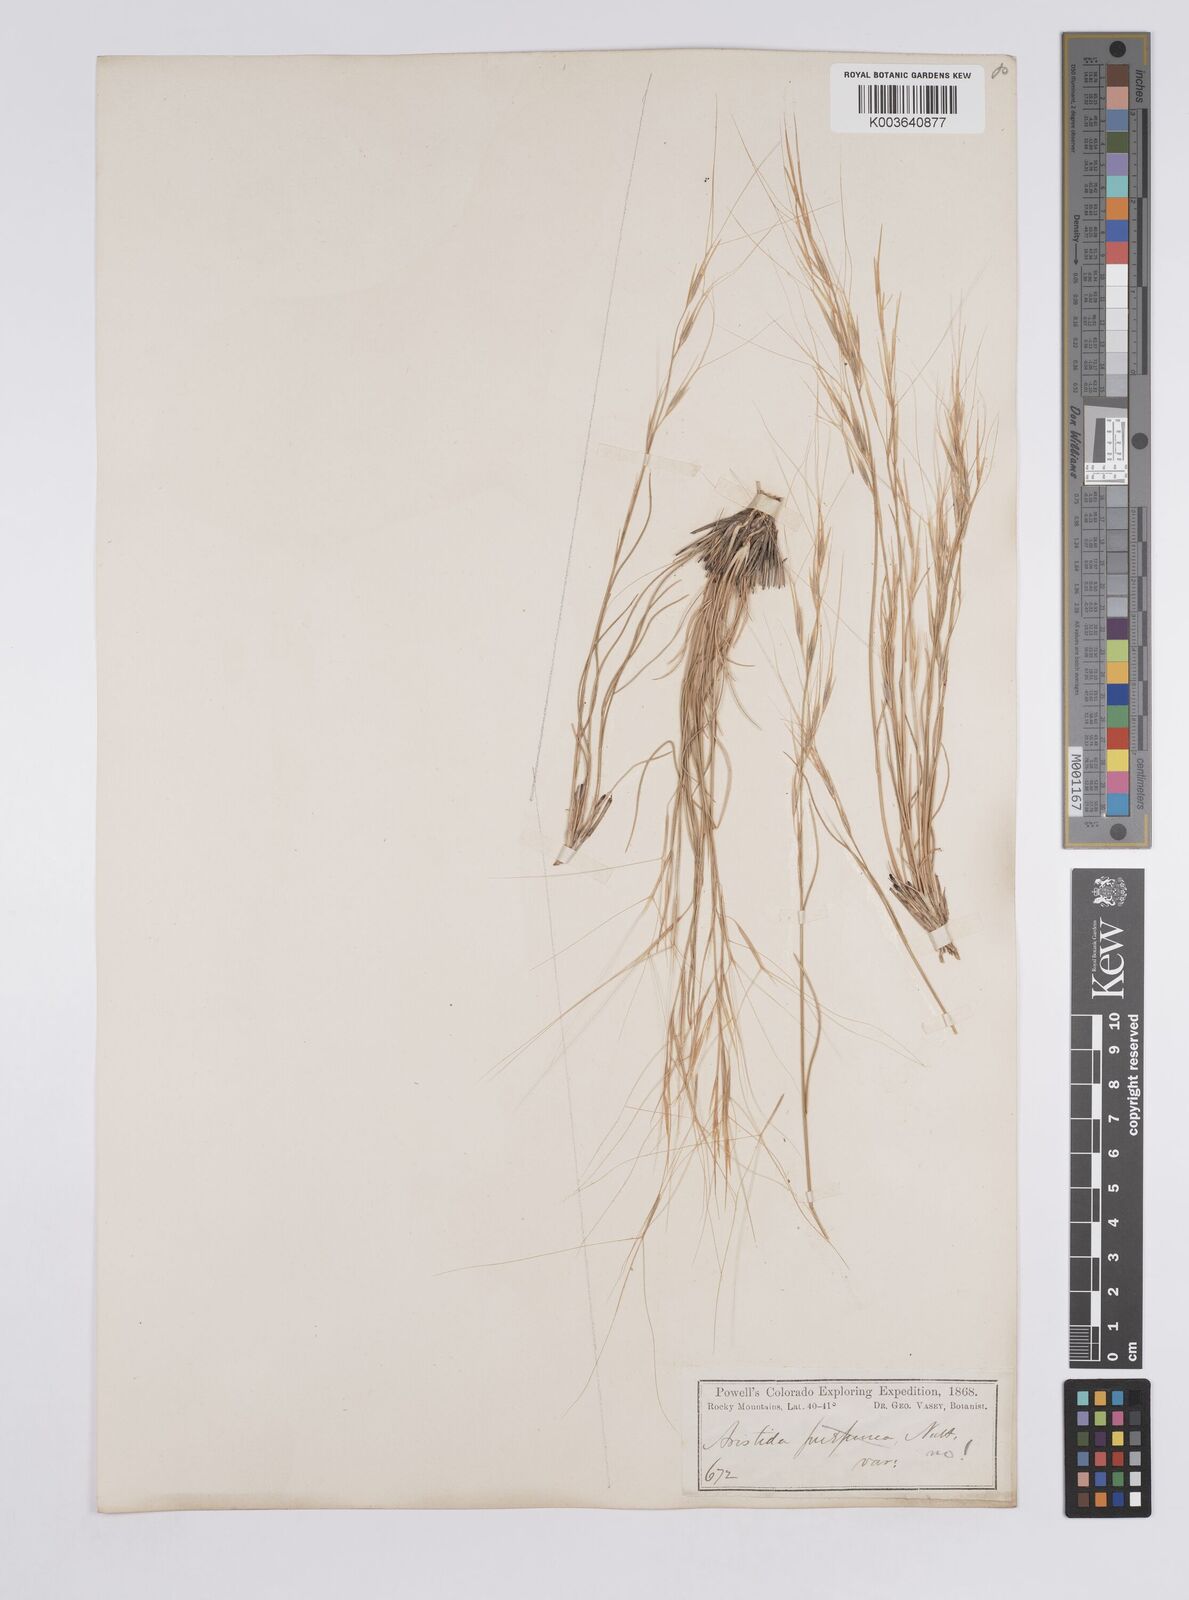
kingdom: Plantae
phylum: Tracheophyta
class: Liliopsida
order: Poales
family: Poaceae
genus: Aristida
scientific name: Aristida purpurea
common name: Purple threeawn
